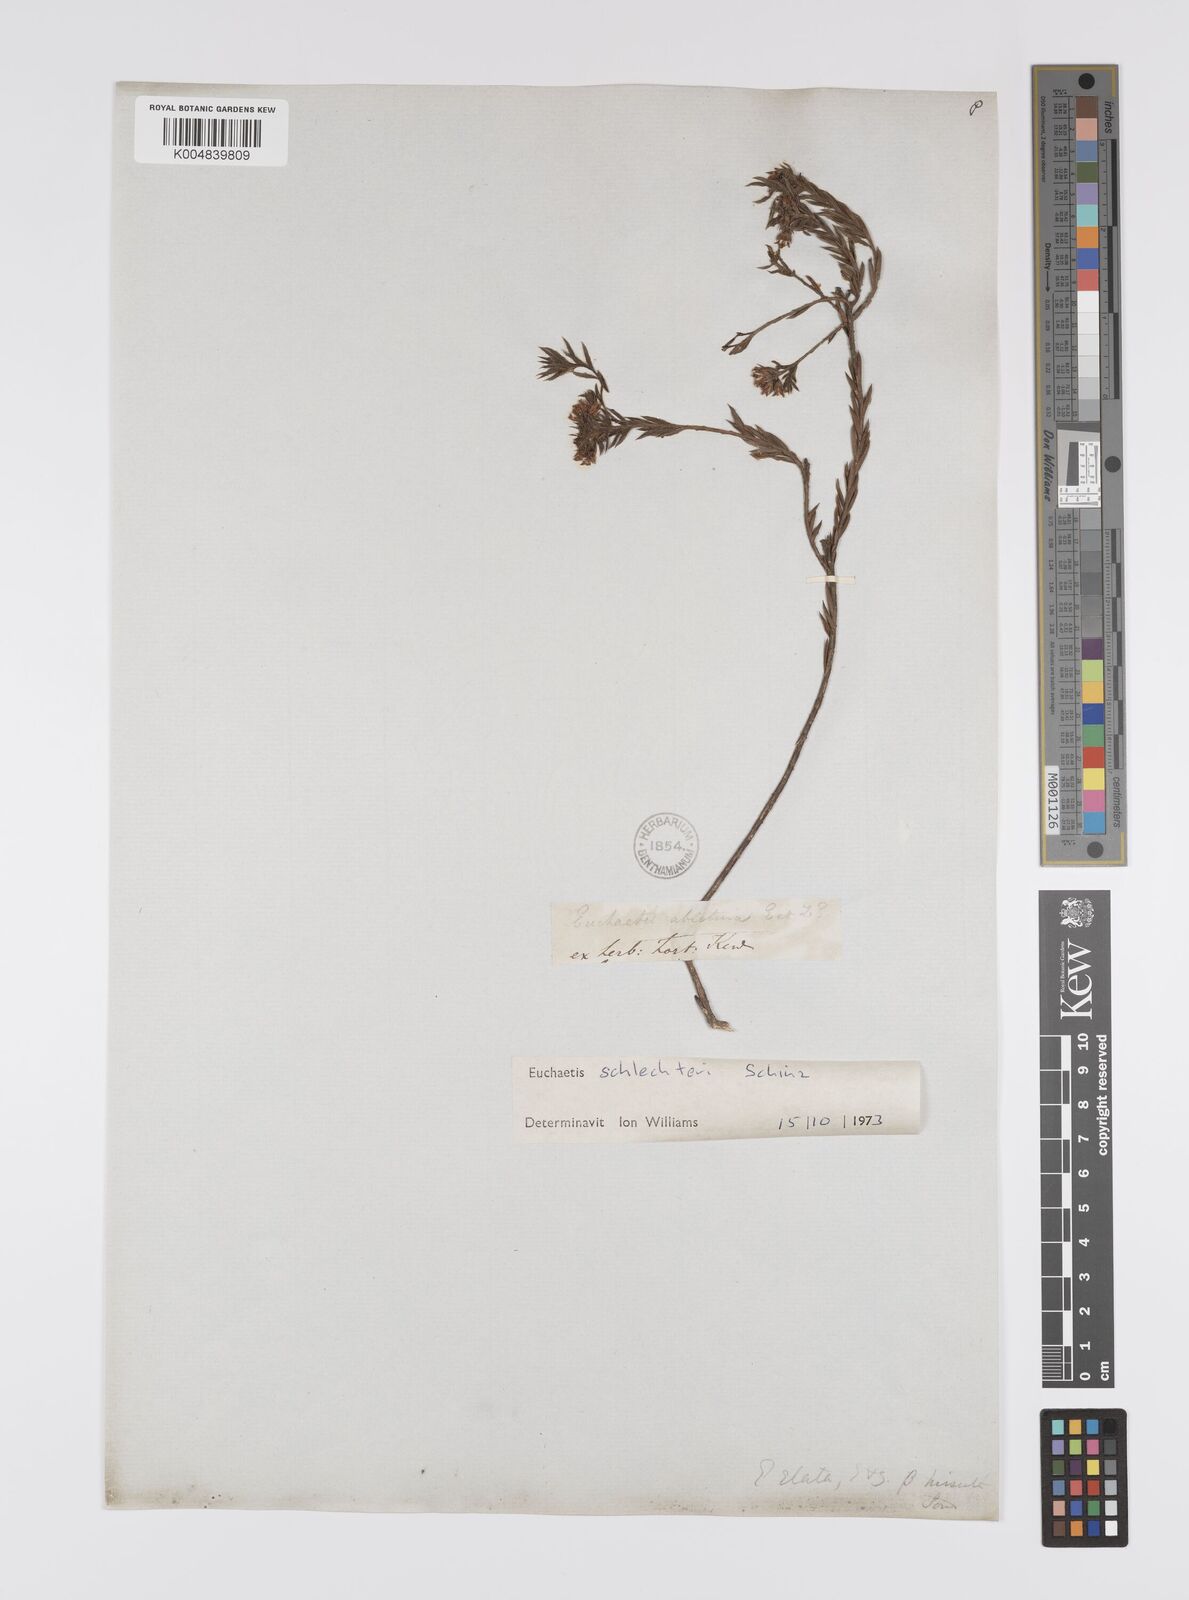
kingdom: Plantae
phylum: Tracheophyta
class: Magnoliopsida
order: Sapindales
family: Rutaceae
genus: Euchaetis
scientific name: Euchaetis schlechteri
